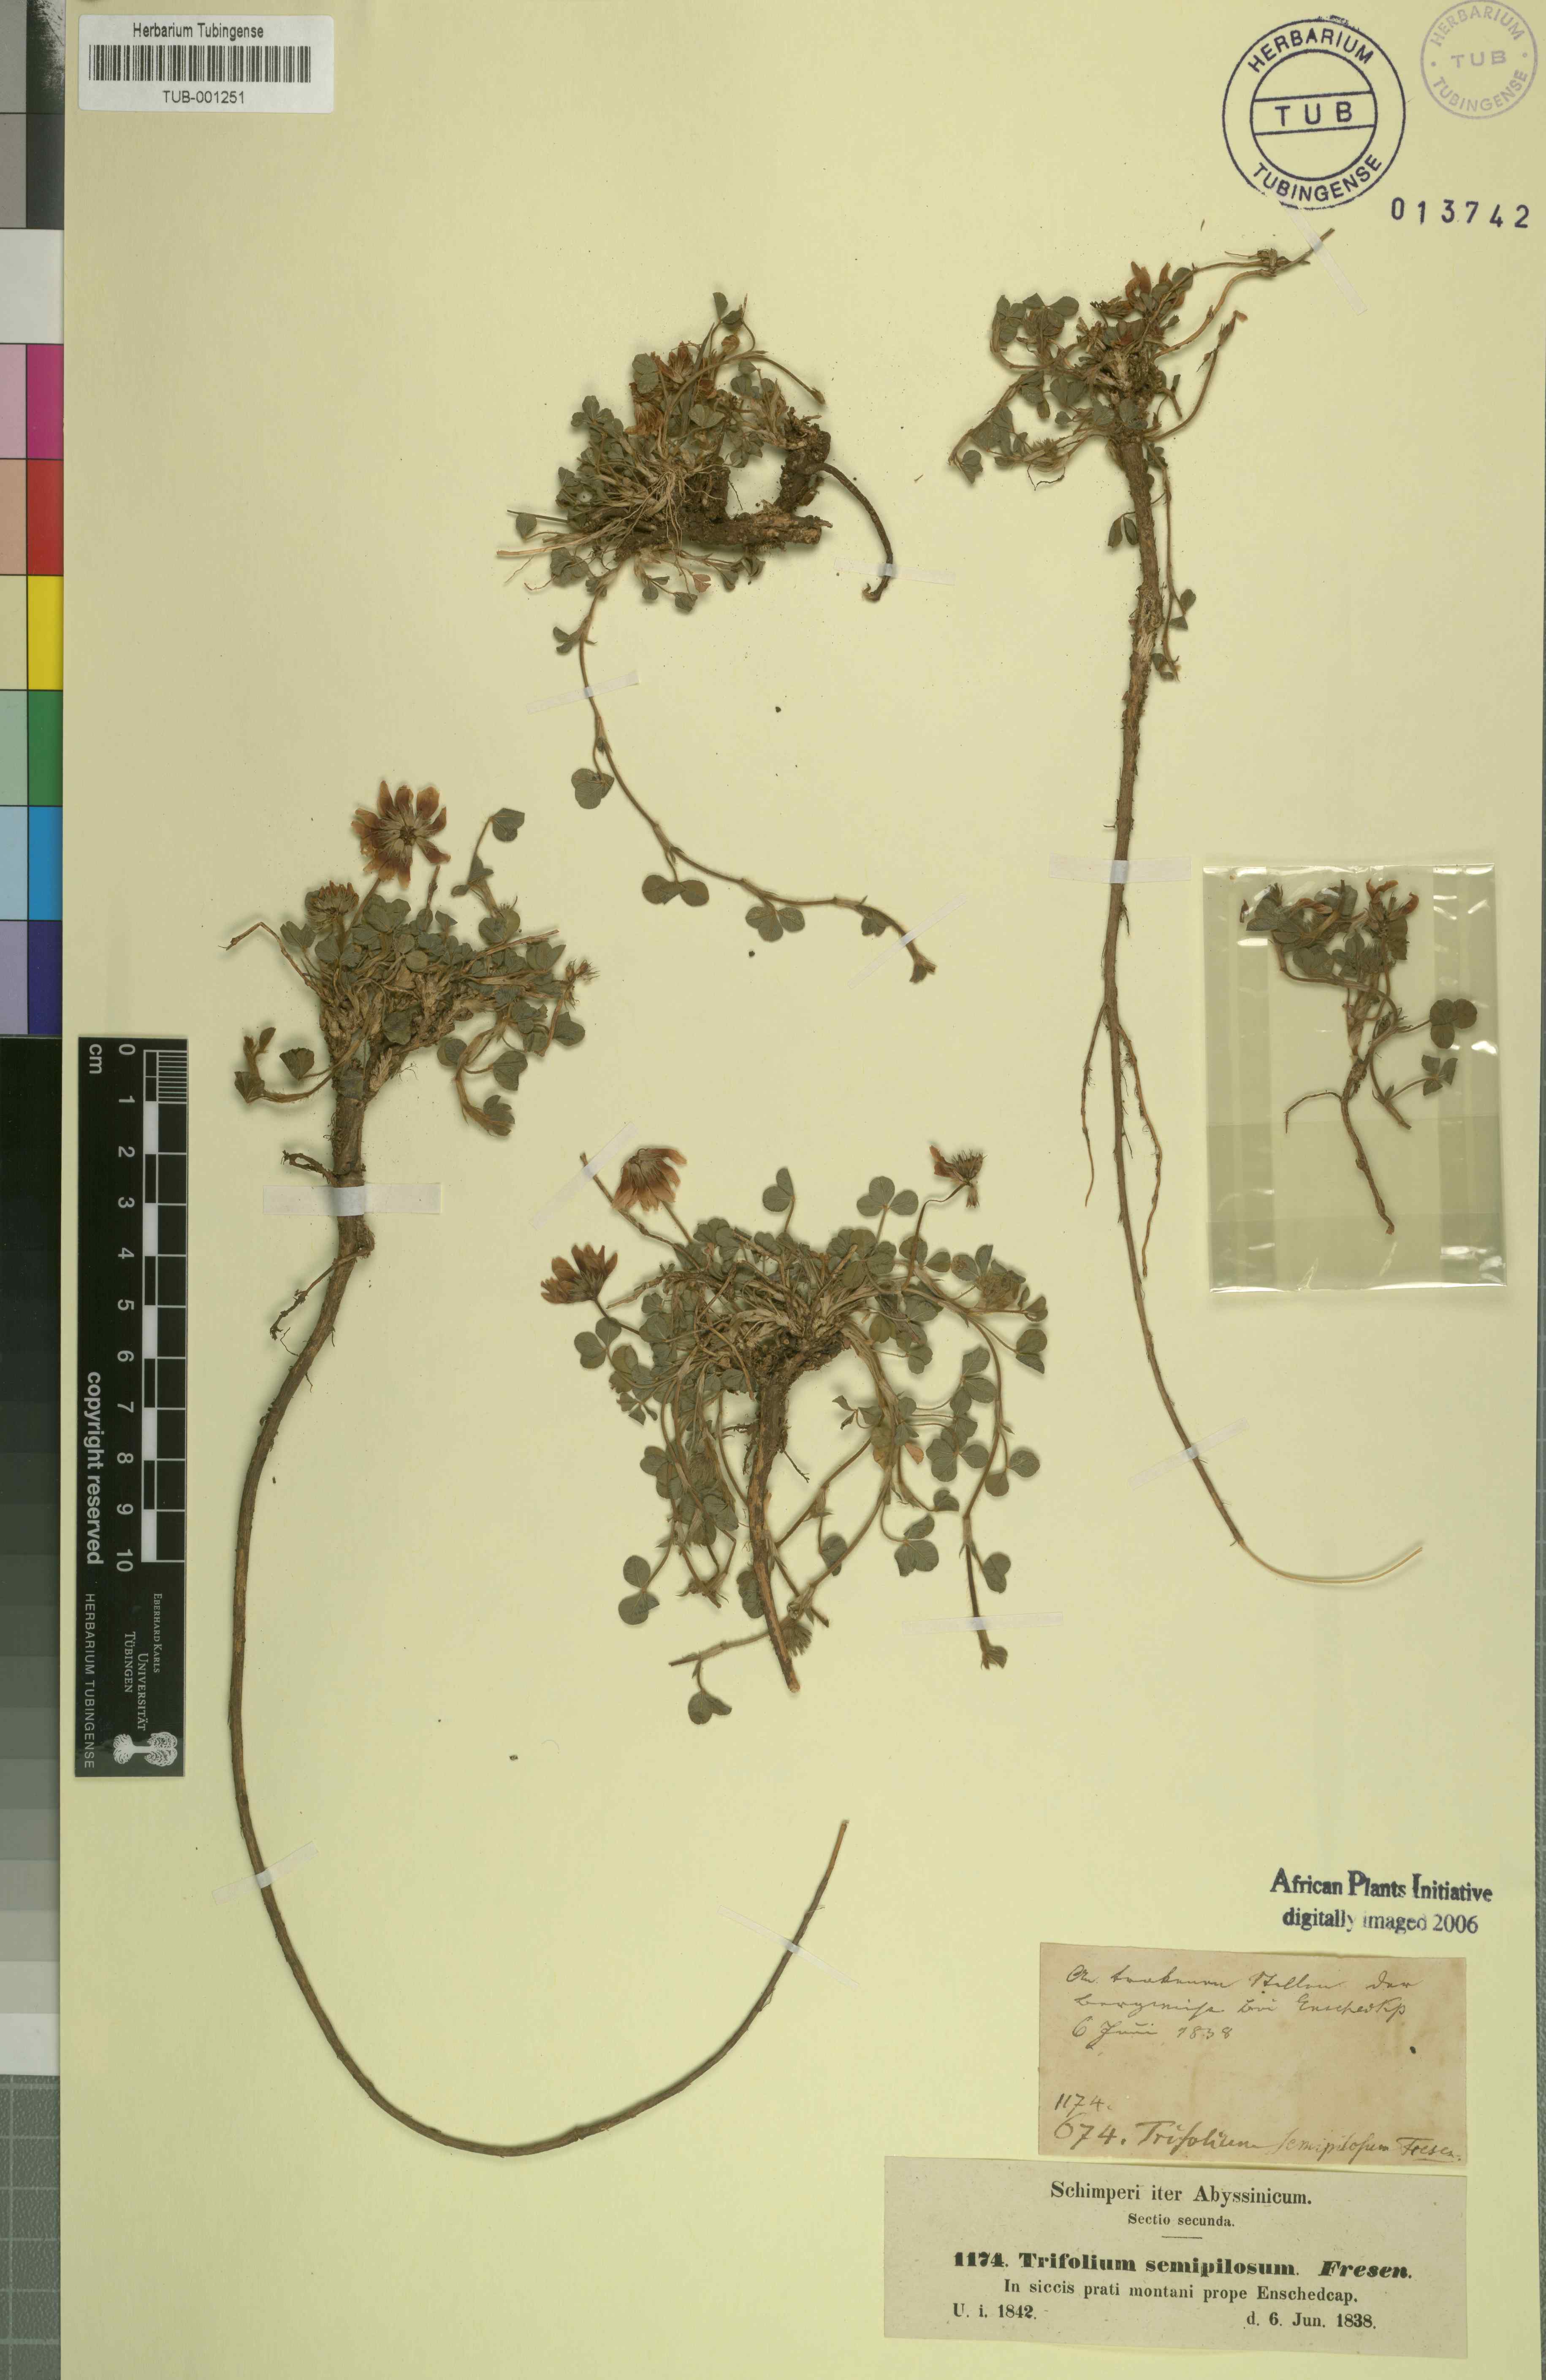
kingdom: Plantae
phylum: Tracheophyta
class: Magnoliopsida
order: Fabales
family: Fabaceae
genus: Trifolium
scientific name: Trifolium semipilosum
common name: Kenya clover
